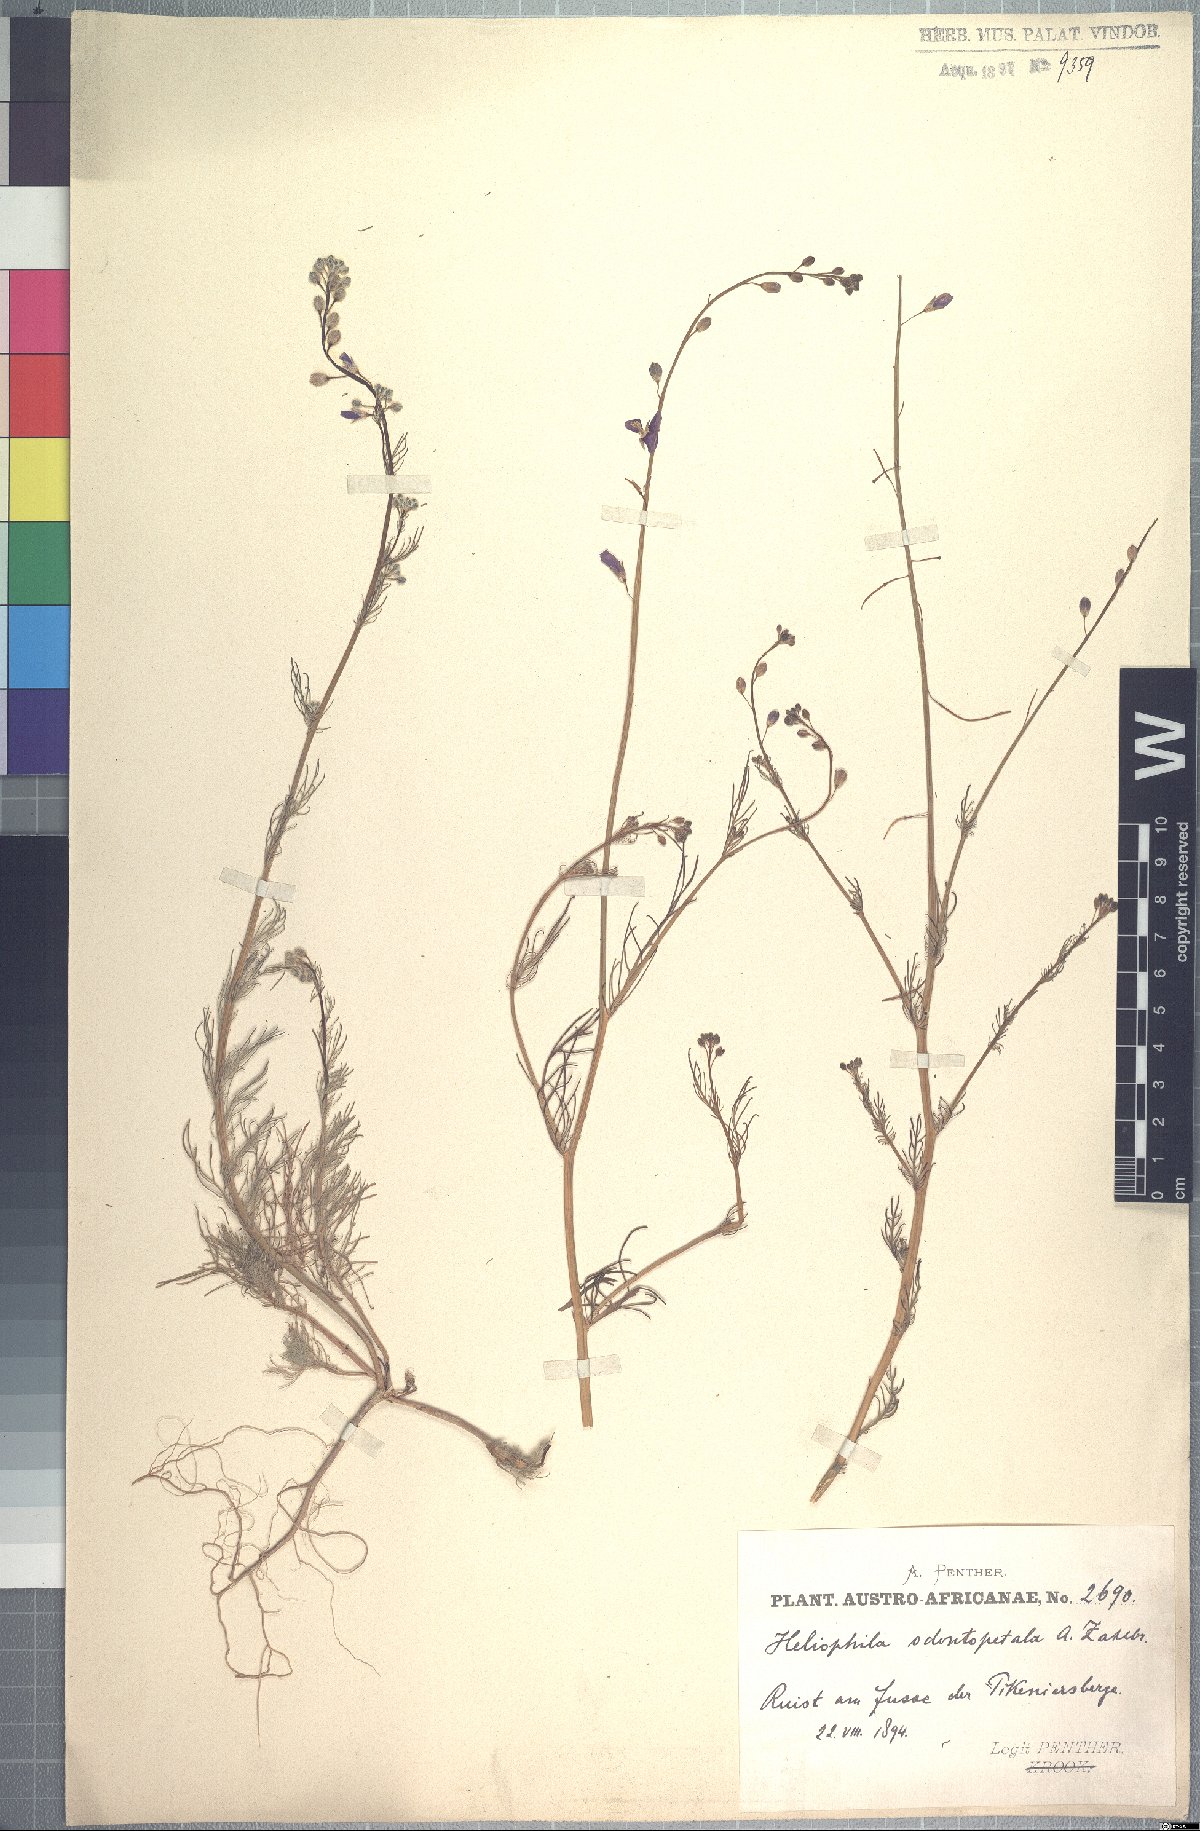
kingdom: Plantae
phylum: Tracheophyta
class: Magnoliopsida
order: Brassicales
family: Brassicaceae
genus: Heliophila
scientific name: Heliophila digitata
